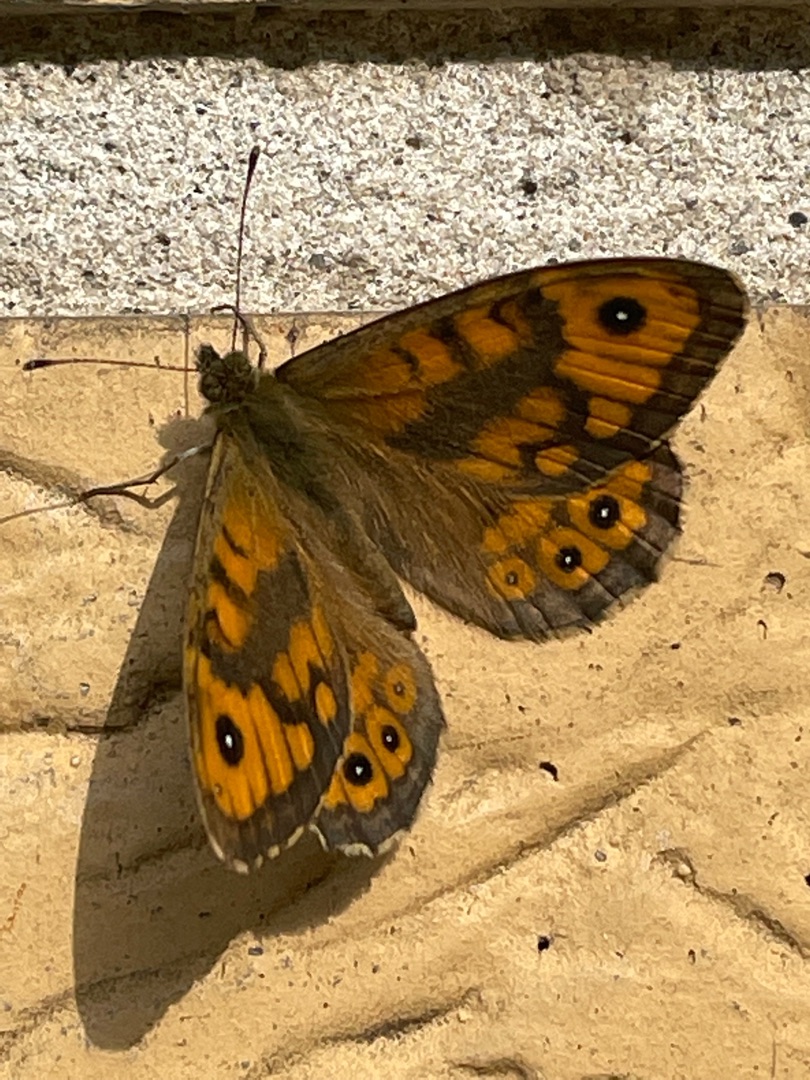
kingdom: Animalia
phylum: Arthropoda
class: Insecta
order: Lepidoptera
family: Nymphalidae
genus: Pararge
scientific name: Pararge Lasiommata megera
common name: Vejrandøje
